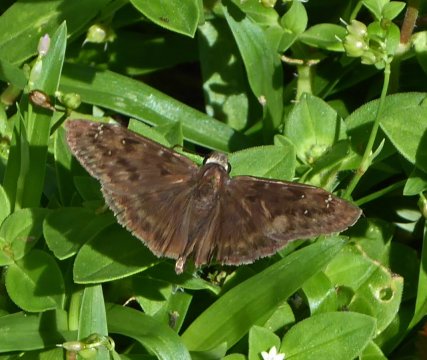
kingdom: Animalia
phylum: Arthropoda
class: Insecta
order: Lepidoptera
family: Hesperiidae
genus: Gesta
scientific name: Gesta
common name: Horace's Duskywing
